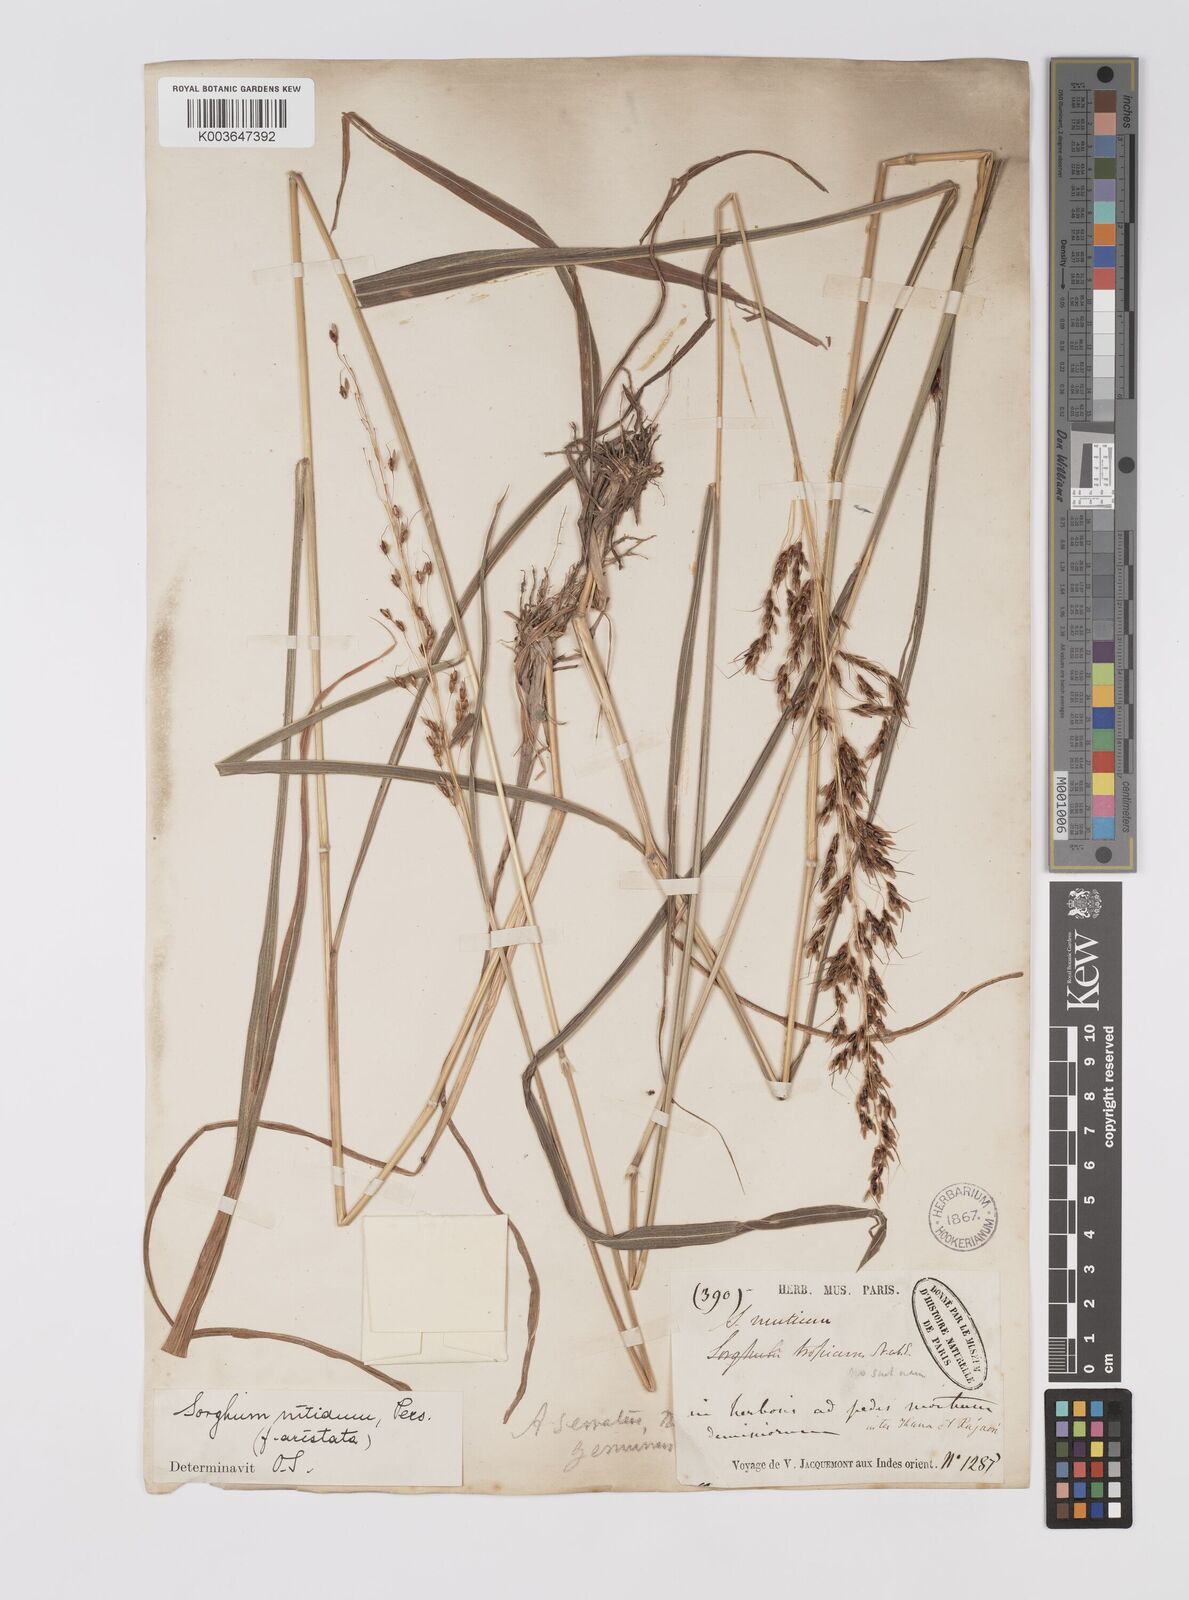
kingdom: Plantae
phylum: Tracheophyta
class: Liliopsida
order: Poales
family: Poaceae
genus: Sorghum
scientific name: Sorghum nitidum
